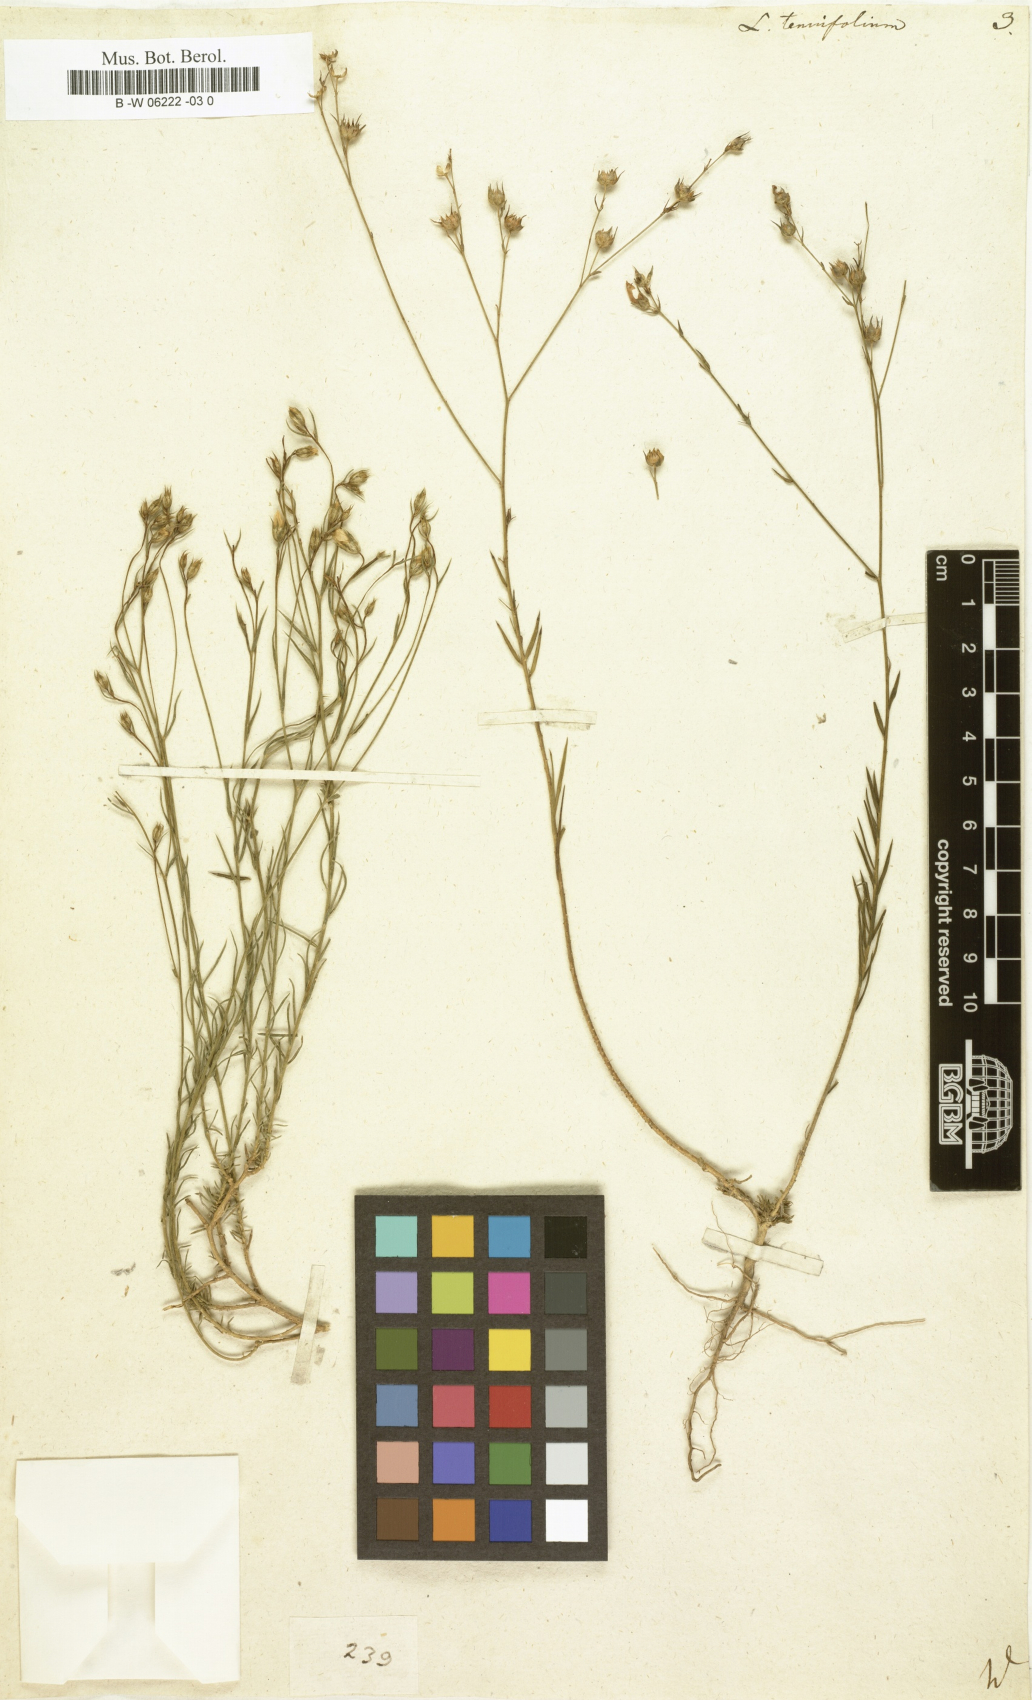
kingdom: Plantae
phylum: Tracheophyta
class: Magnoliopsida
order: Malpighiales
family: Linaceae
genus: Linum
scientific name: Linum tenuifolium
